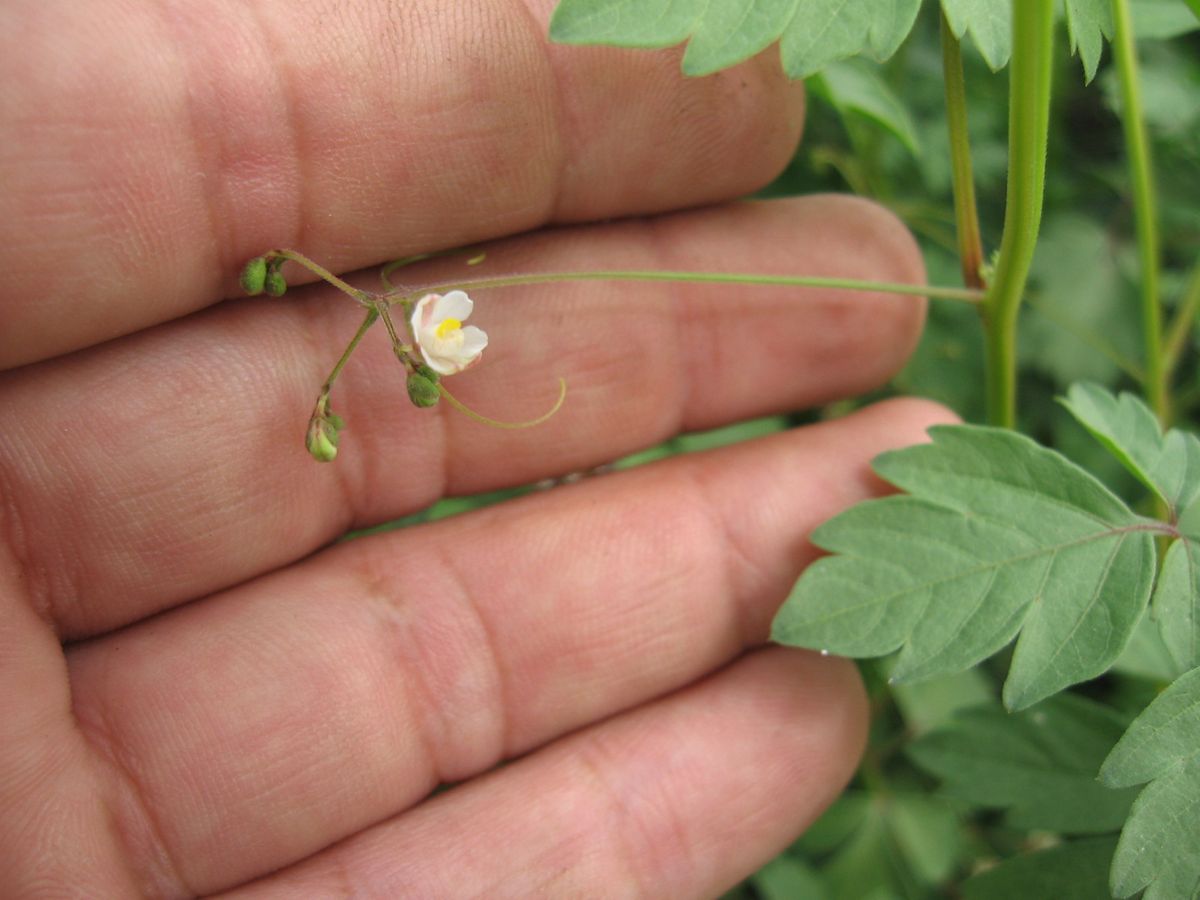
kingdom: Plantae
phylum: Tracheophyta
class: Magnoliopsida
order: Sapindales
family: Sapindaceae
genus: Cardiospermum
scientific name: Cardiospermum halicacabum
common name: Balloon vine
